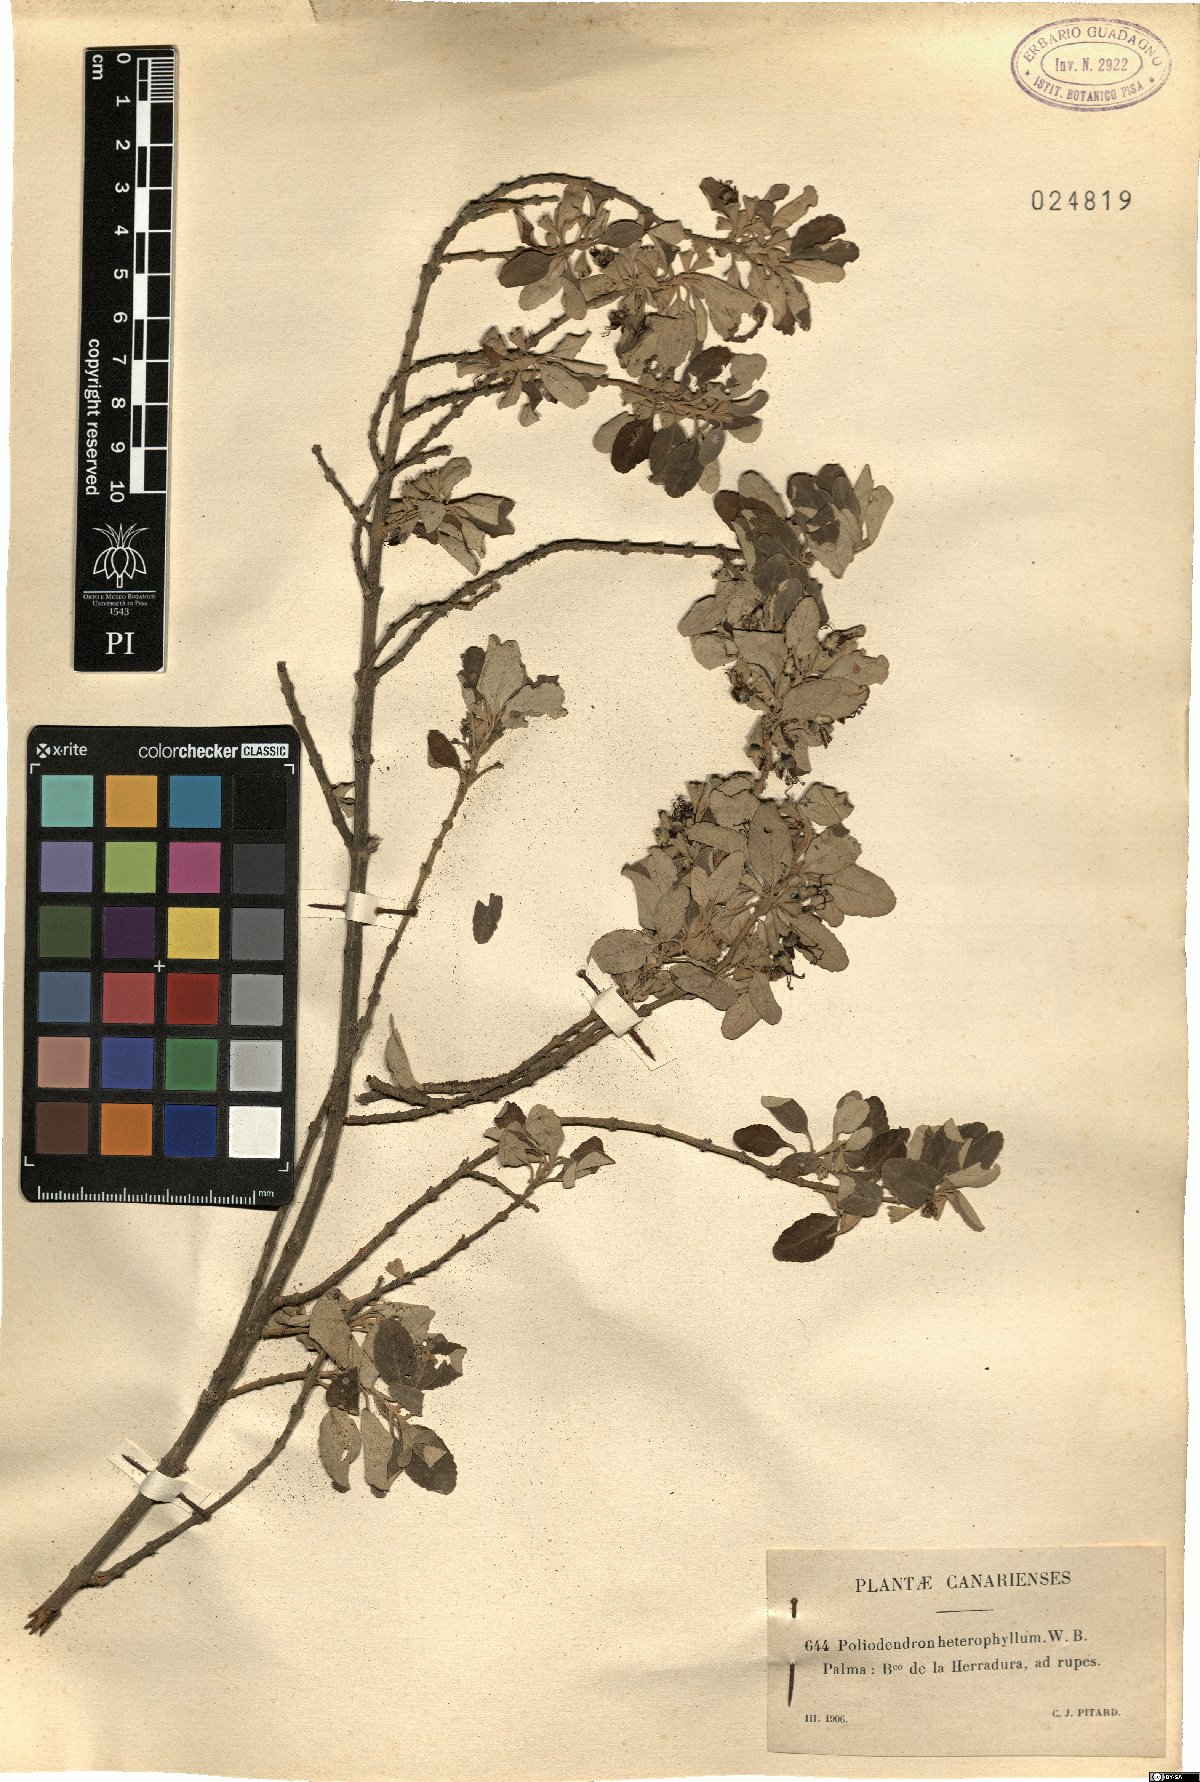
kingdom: Plantae
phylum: Tracheophyta
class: Magnoliopsida
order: Lamiales
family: Lamiaceae
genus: Teucrium
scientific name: Teucrium heterophyllum
